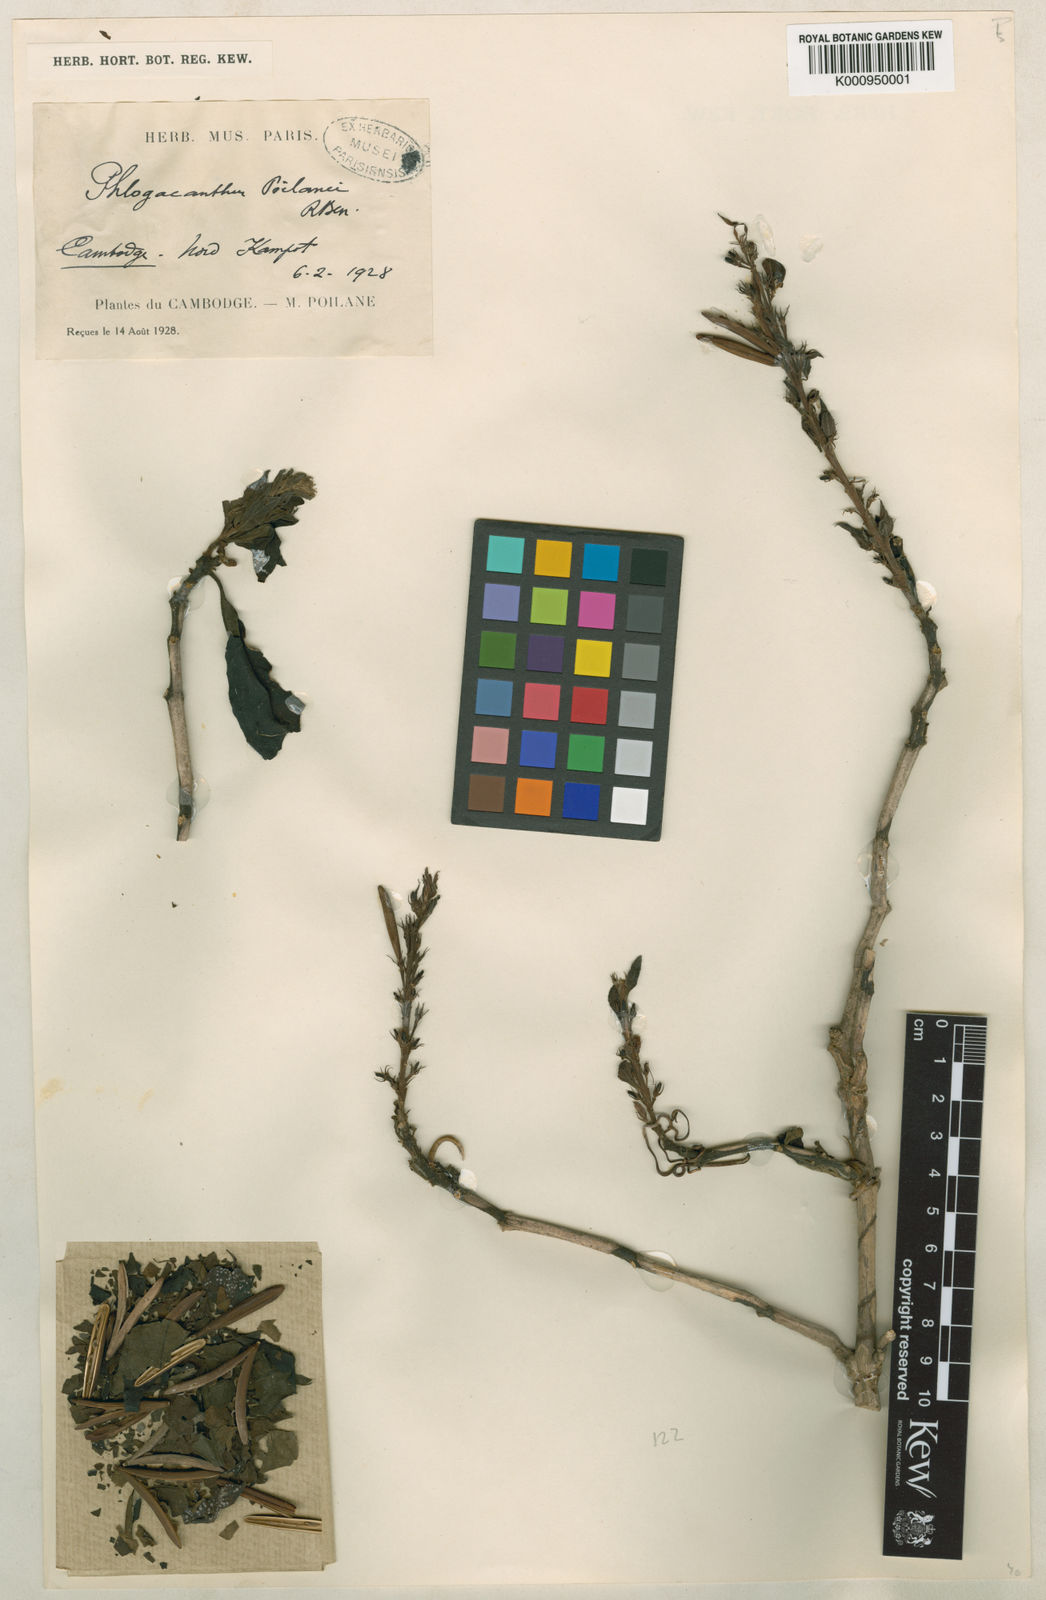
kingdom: Plantae
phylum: Tracheophyta
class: Magnoliopsida
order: Lamiales
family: Acanthaceae
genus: Phlogacanthus
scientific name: Phlogacanthus poilanei
